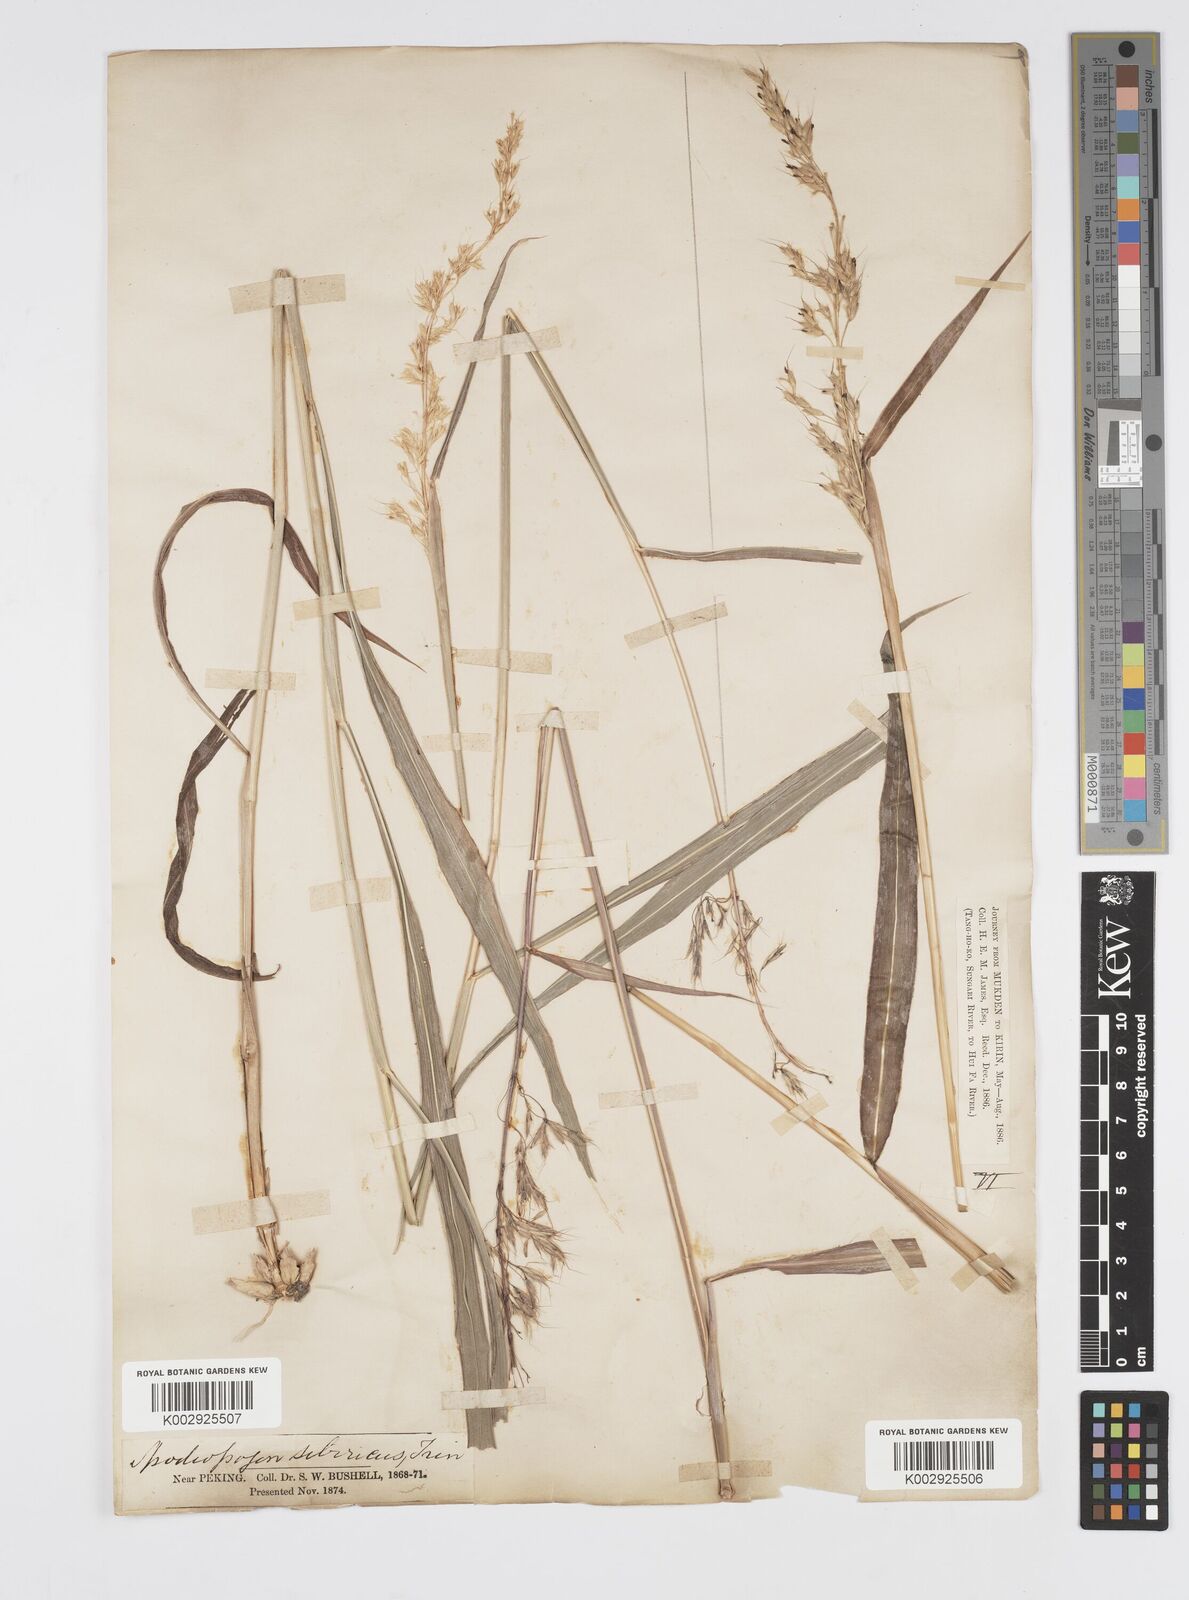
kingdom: Plantae
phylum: Tracheophyta
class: Liliopsida
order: Poales
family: Poaceae
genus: Spodiopogon
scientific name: Spodiopogon sibiricus
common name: Siberian graybeard
